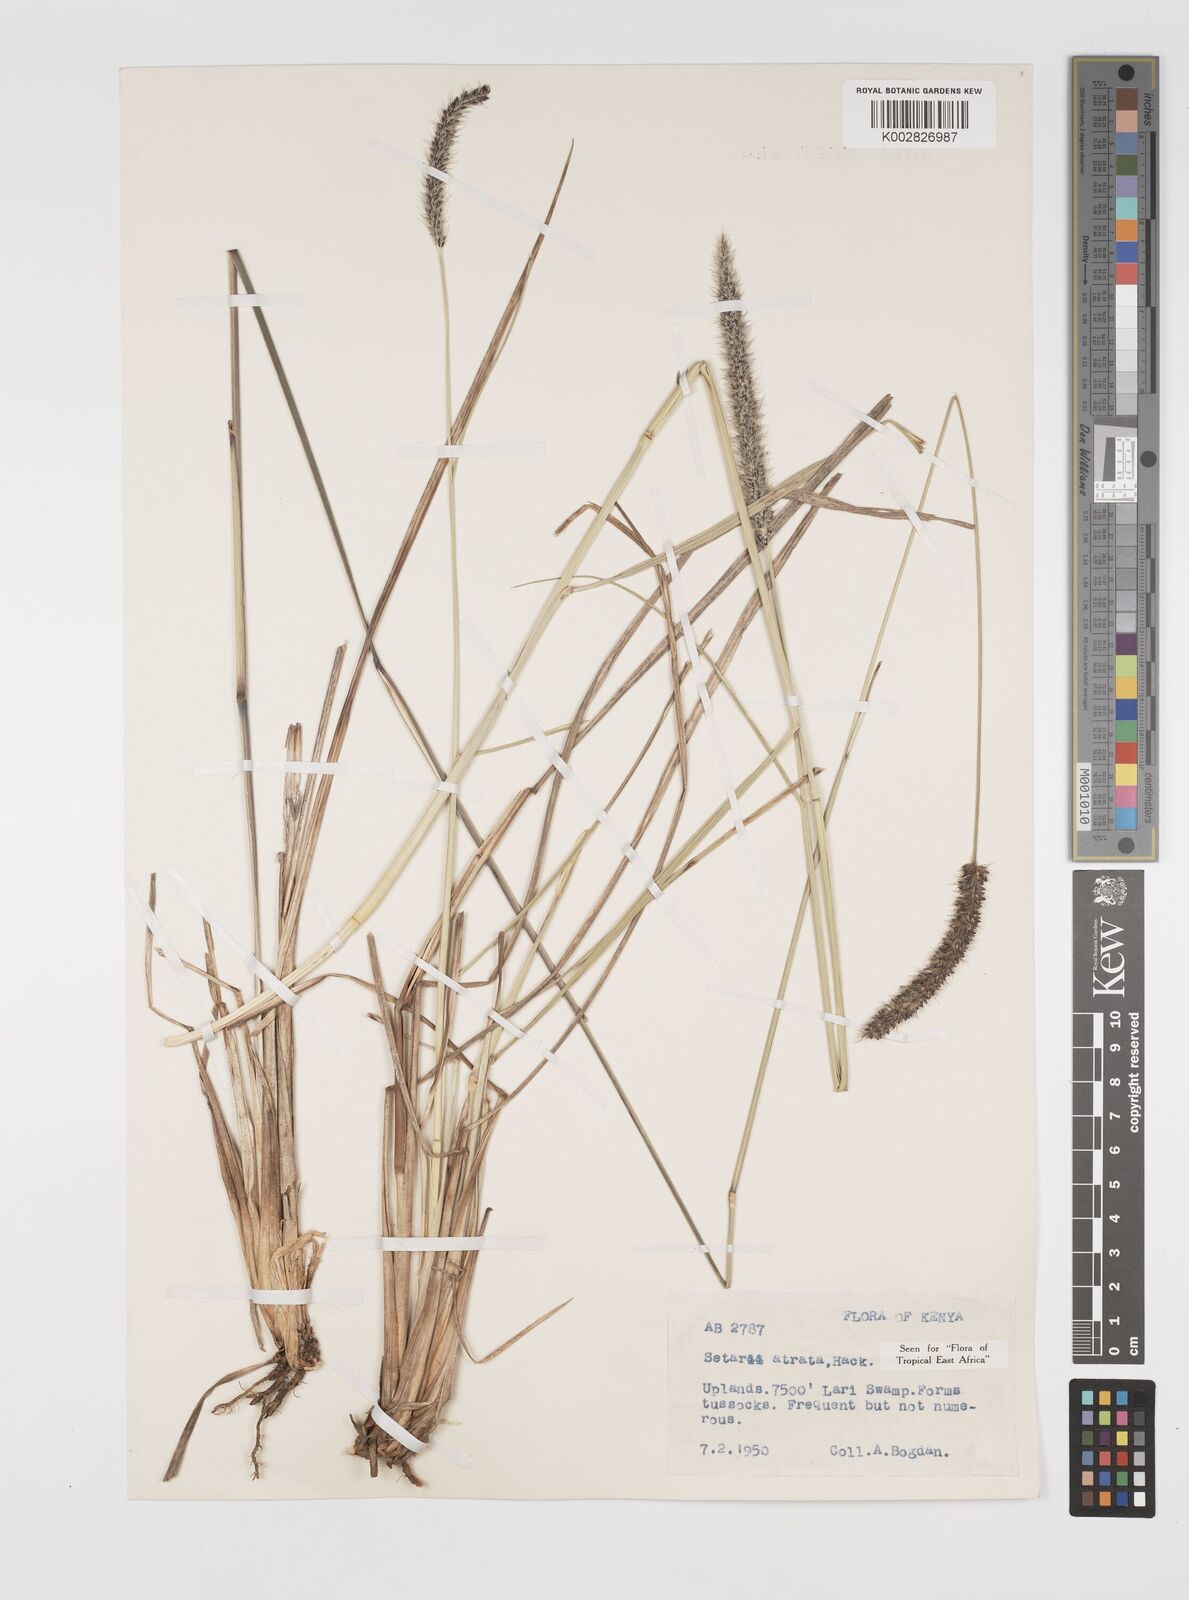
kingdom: Plantae
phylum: Tracheophyta
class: Liliopsida
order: Poales
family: Poaceae
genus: Setaria
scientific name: Setaria atrata
